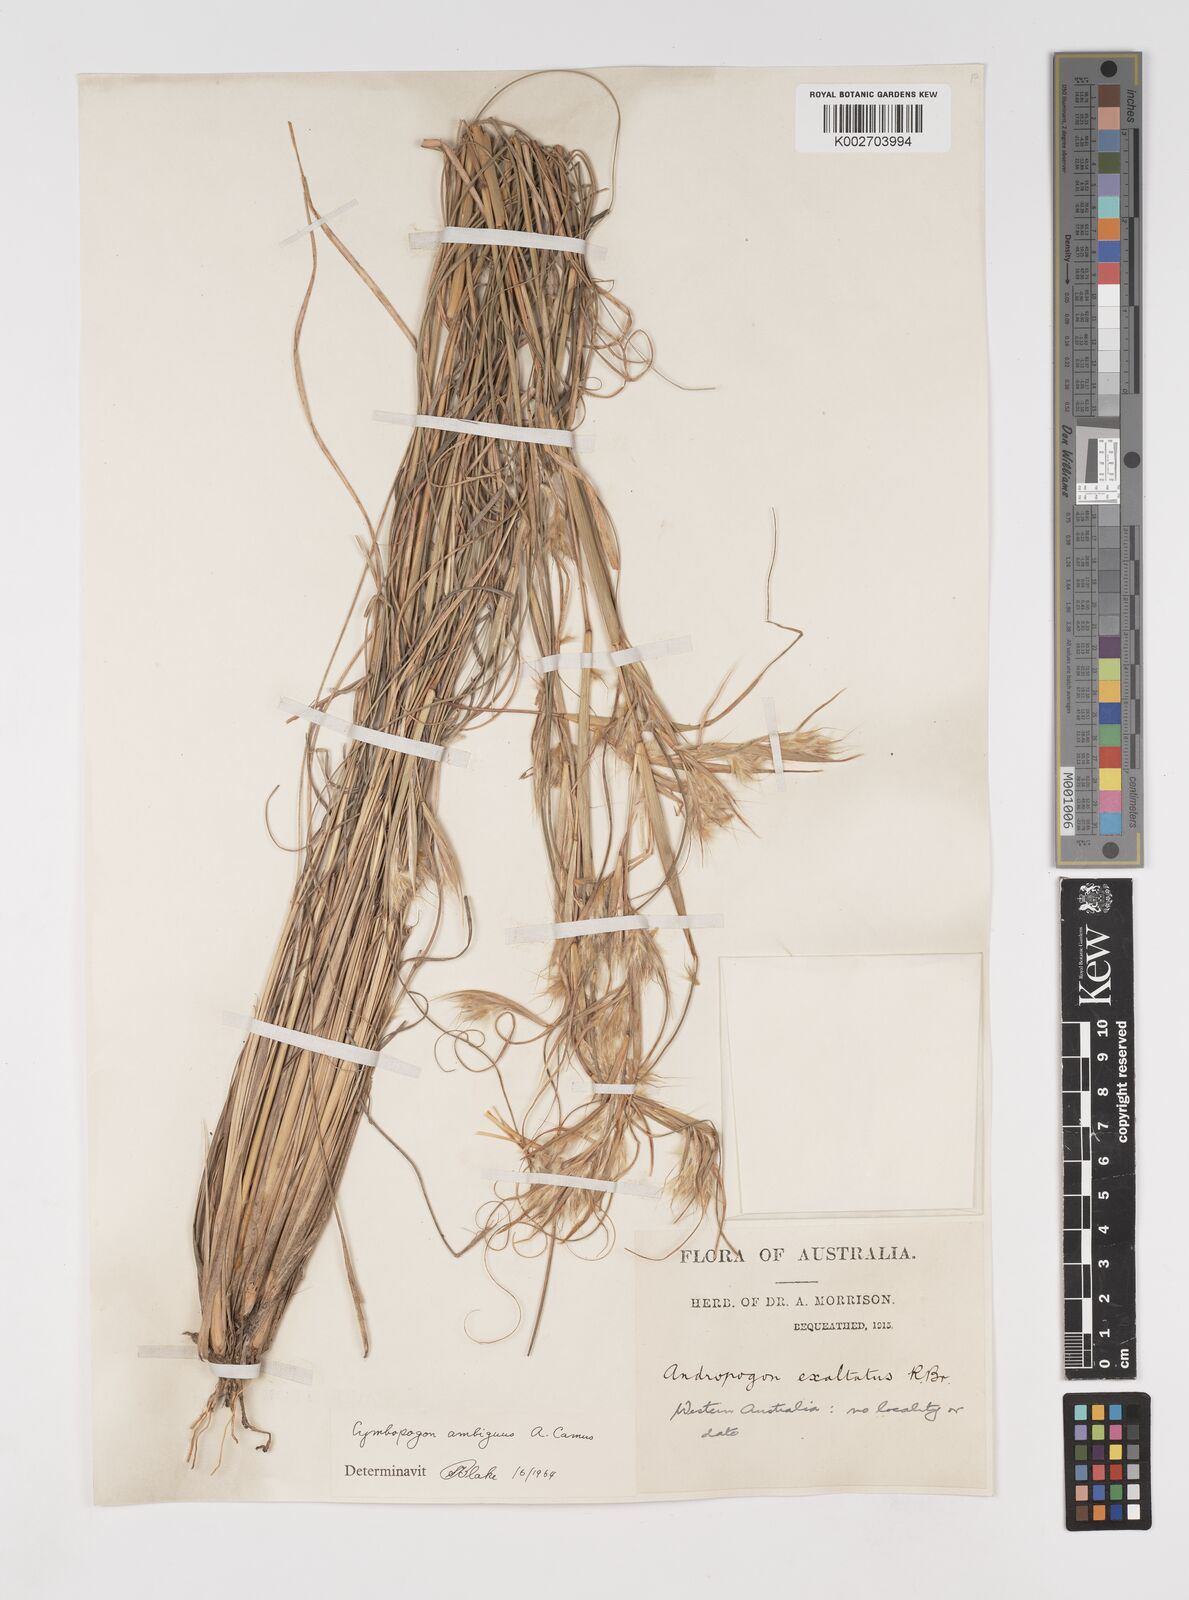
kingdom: Plantae
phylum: Tracheophyta
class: Liliopsida
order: Poales
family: Poaceae
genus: Cymbopogon
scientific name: Cymbopogon ambiguus
